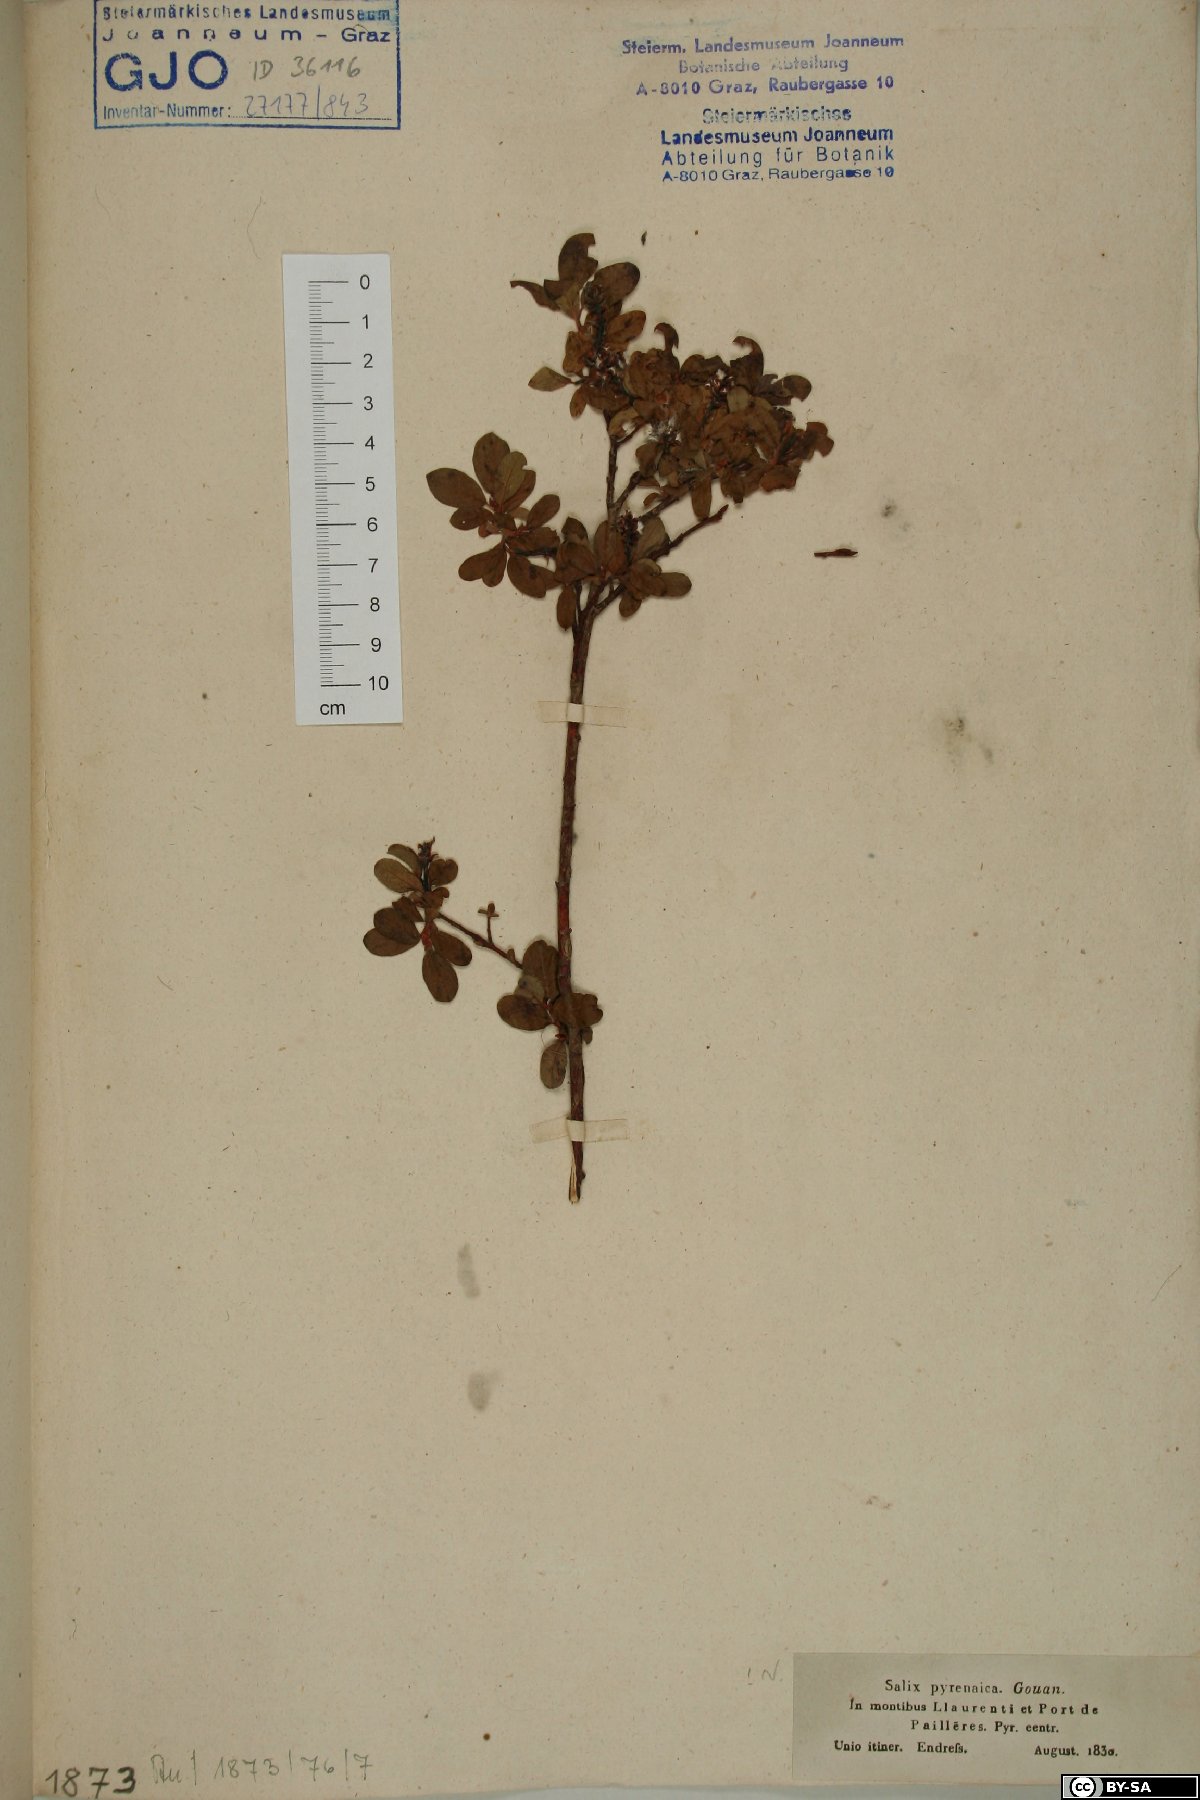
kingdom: Plantae
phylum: Tracheophyta
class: Magnoliopsida
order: Malpighiales
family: Salicaceae
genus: Salix
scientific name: Salix pyrenaica
